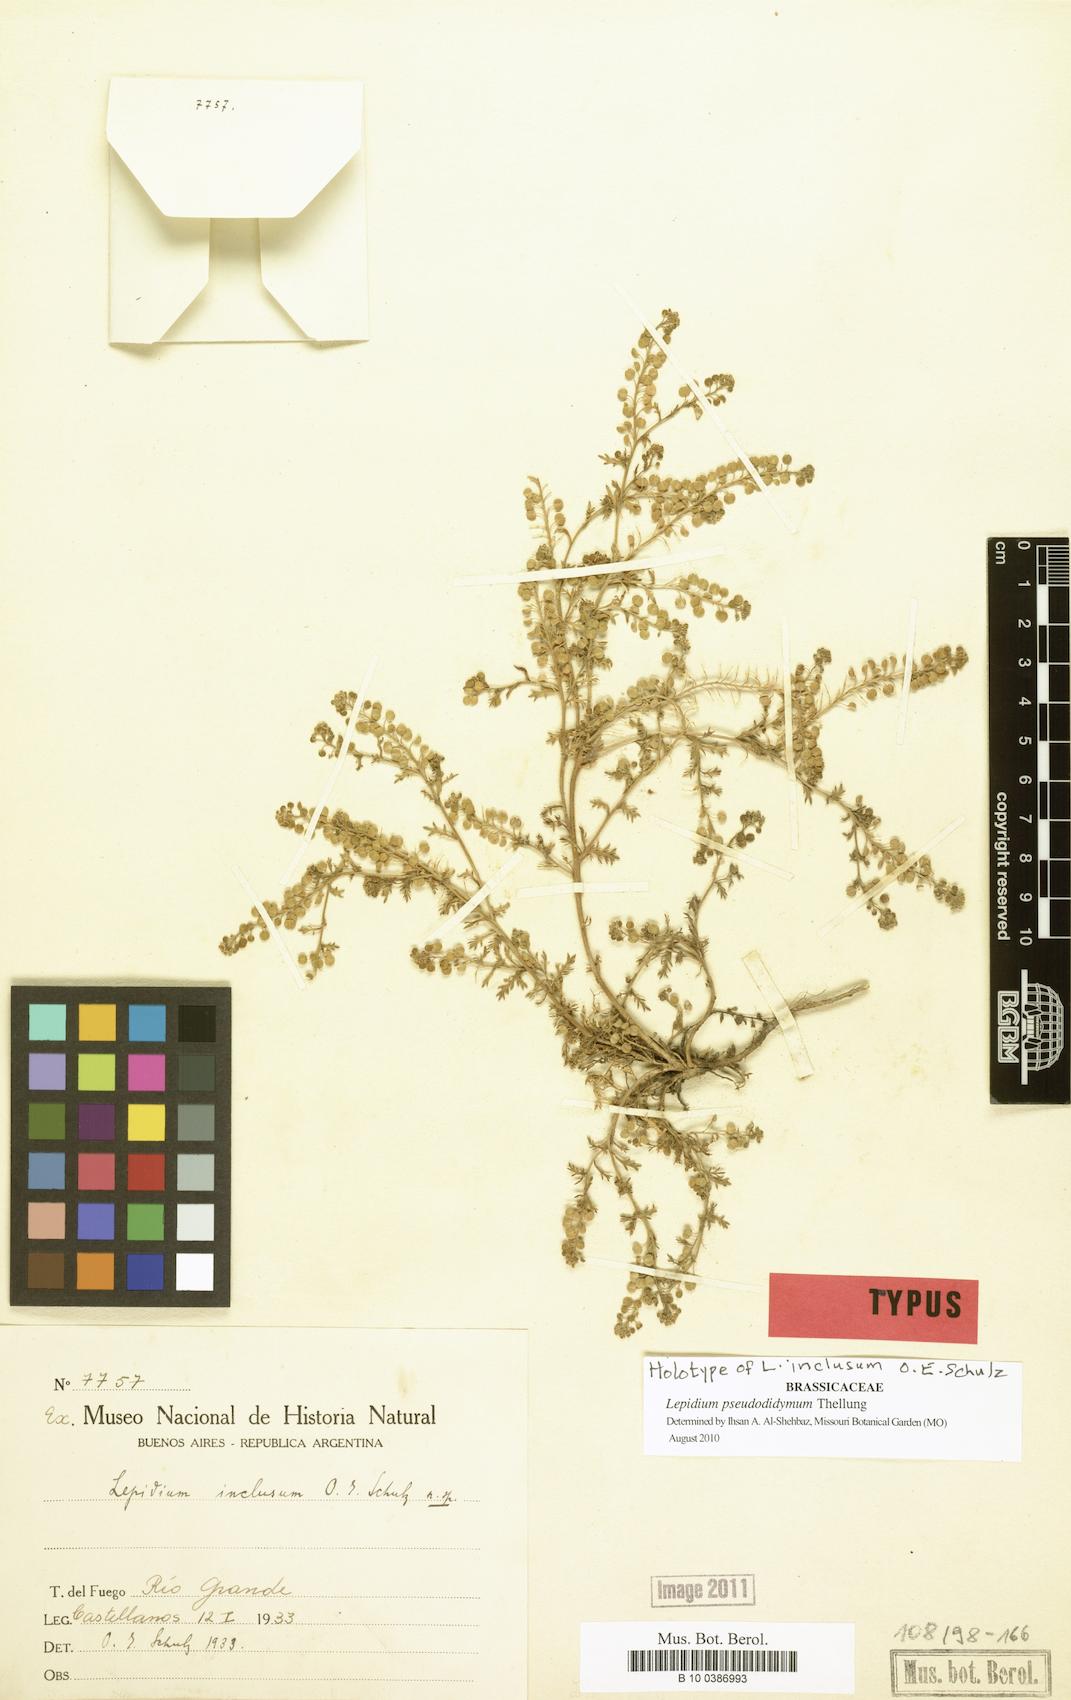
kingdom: Plantae
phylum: Tracheophyta
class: Magnoliopsida
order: Brassicales
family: Brassicaceae
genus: Lepidium
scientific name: Lepidium pseudodidymum
